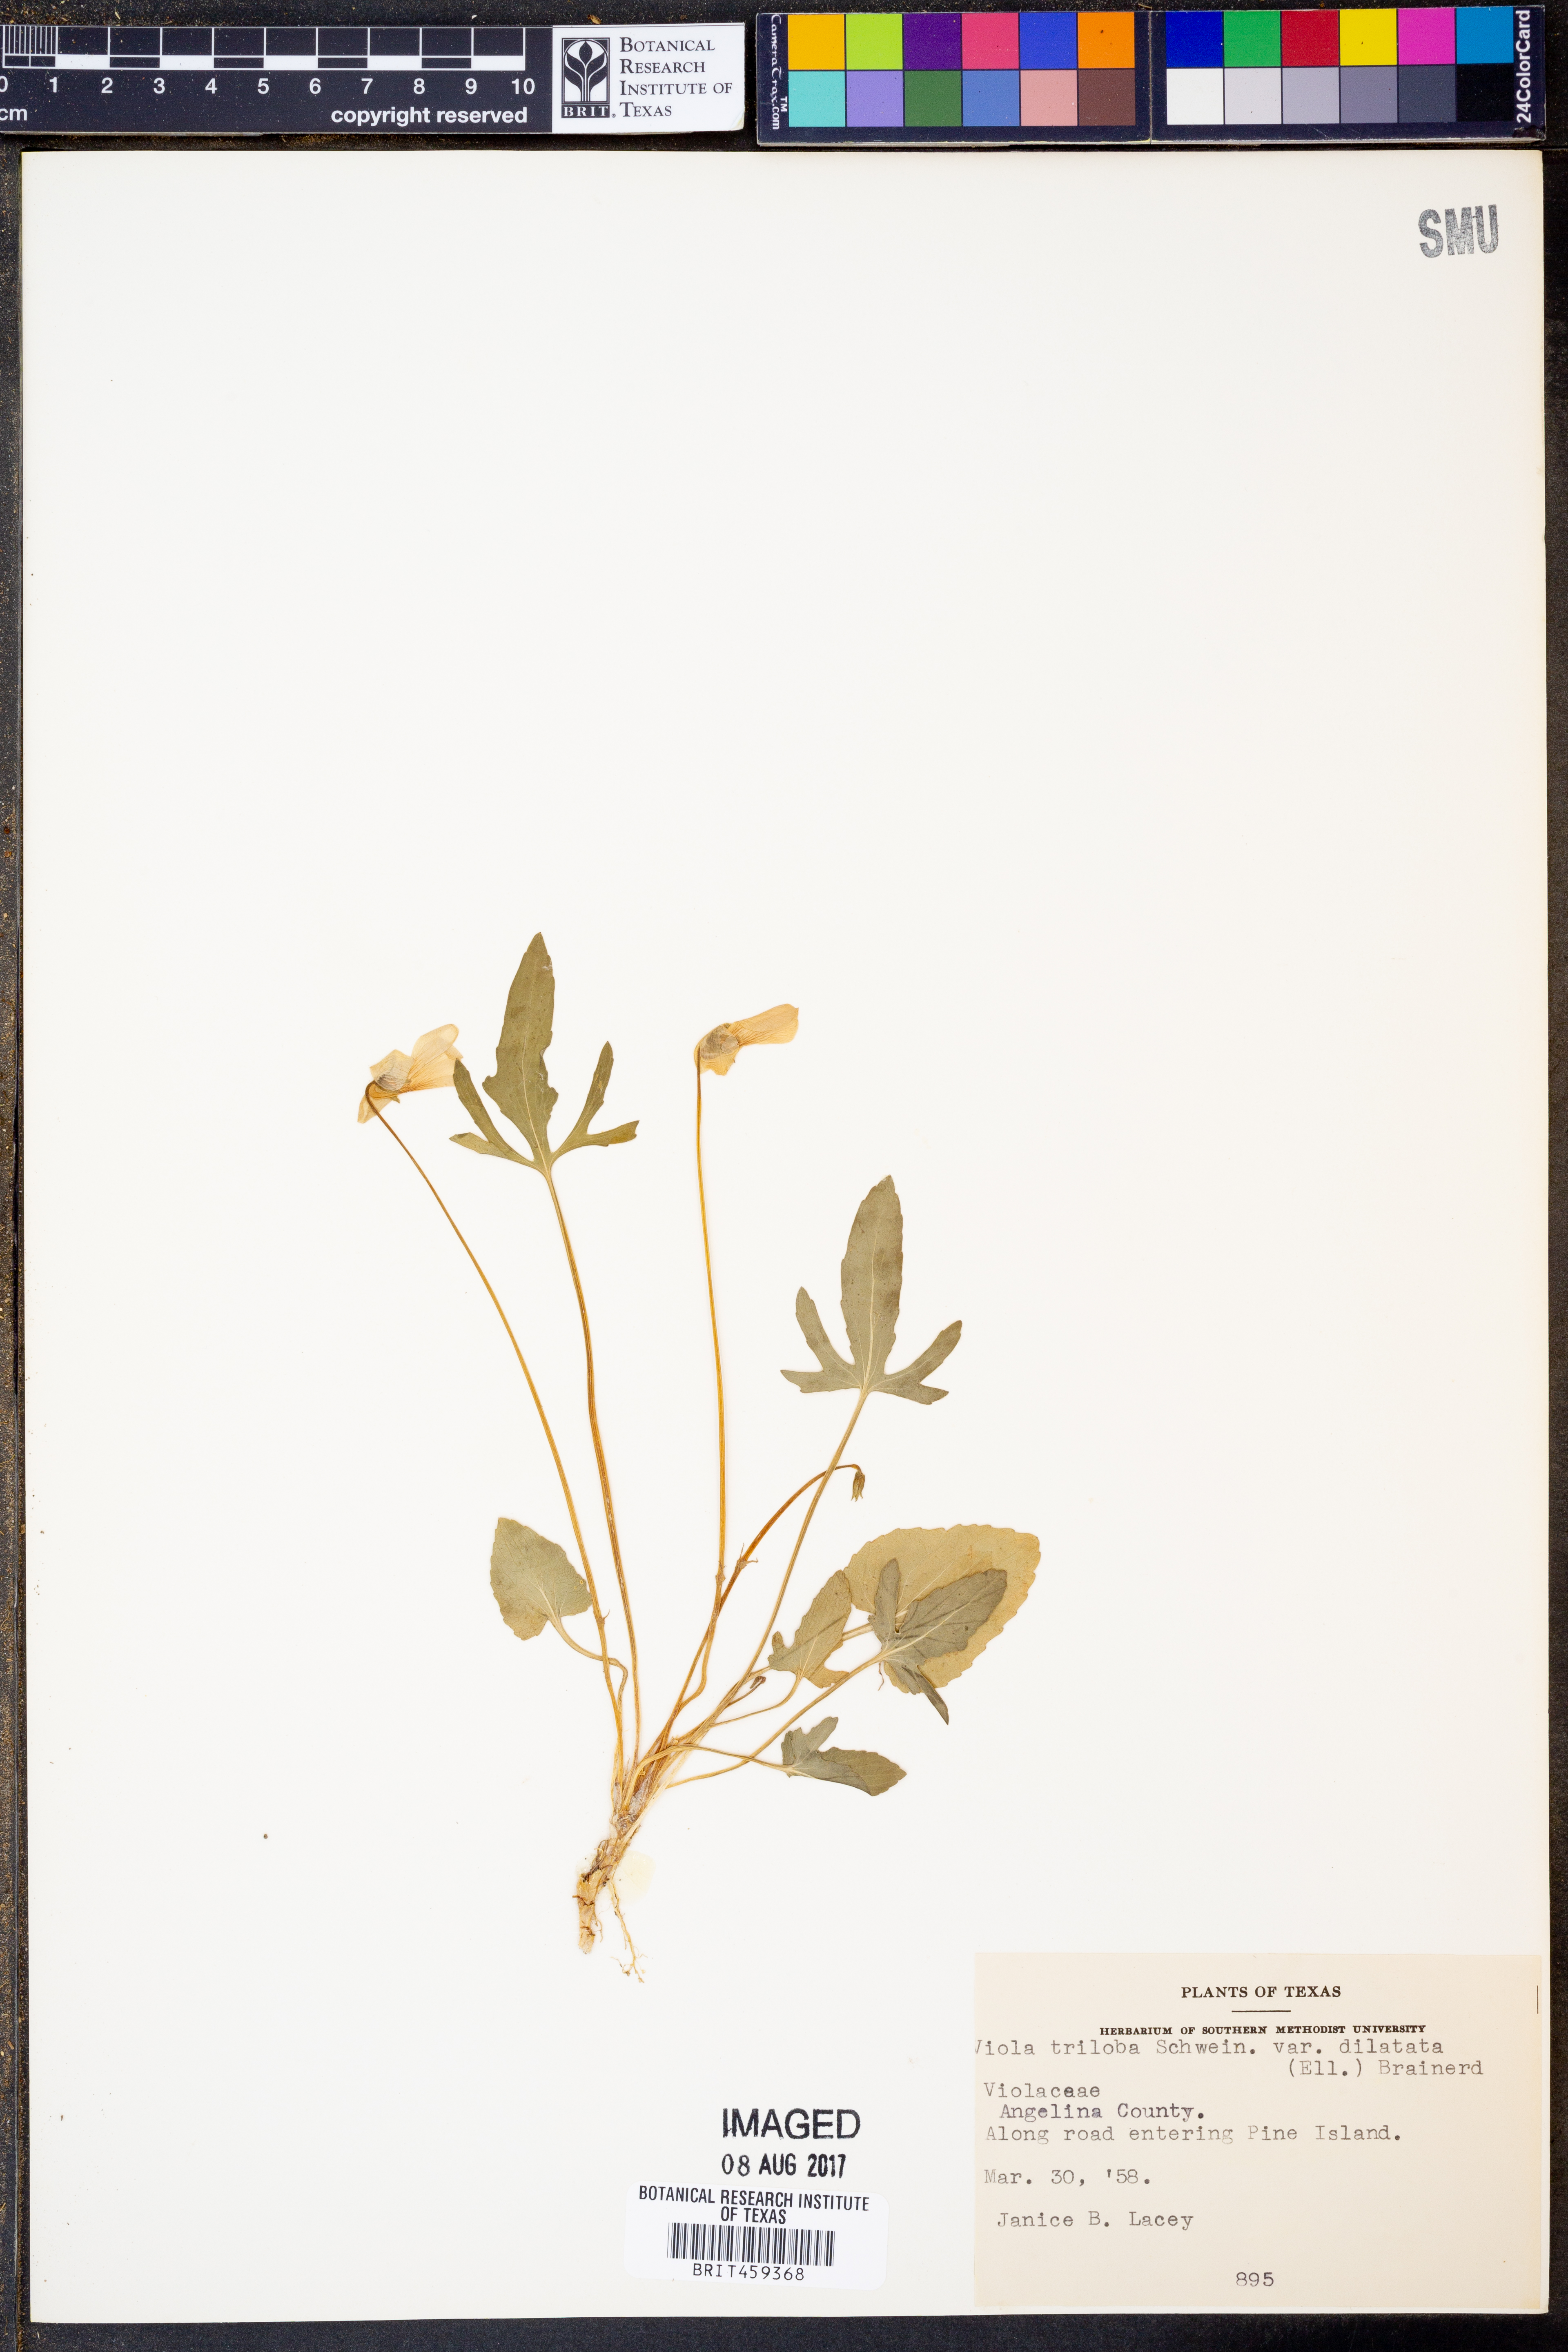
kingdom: Plantae
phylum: Tracheophyta
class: Magnoliopsida
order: Malpighiales
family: Violaceae
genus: Viola
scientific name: Viola palmata
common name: Early blue violet
